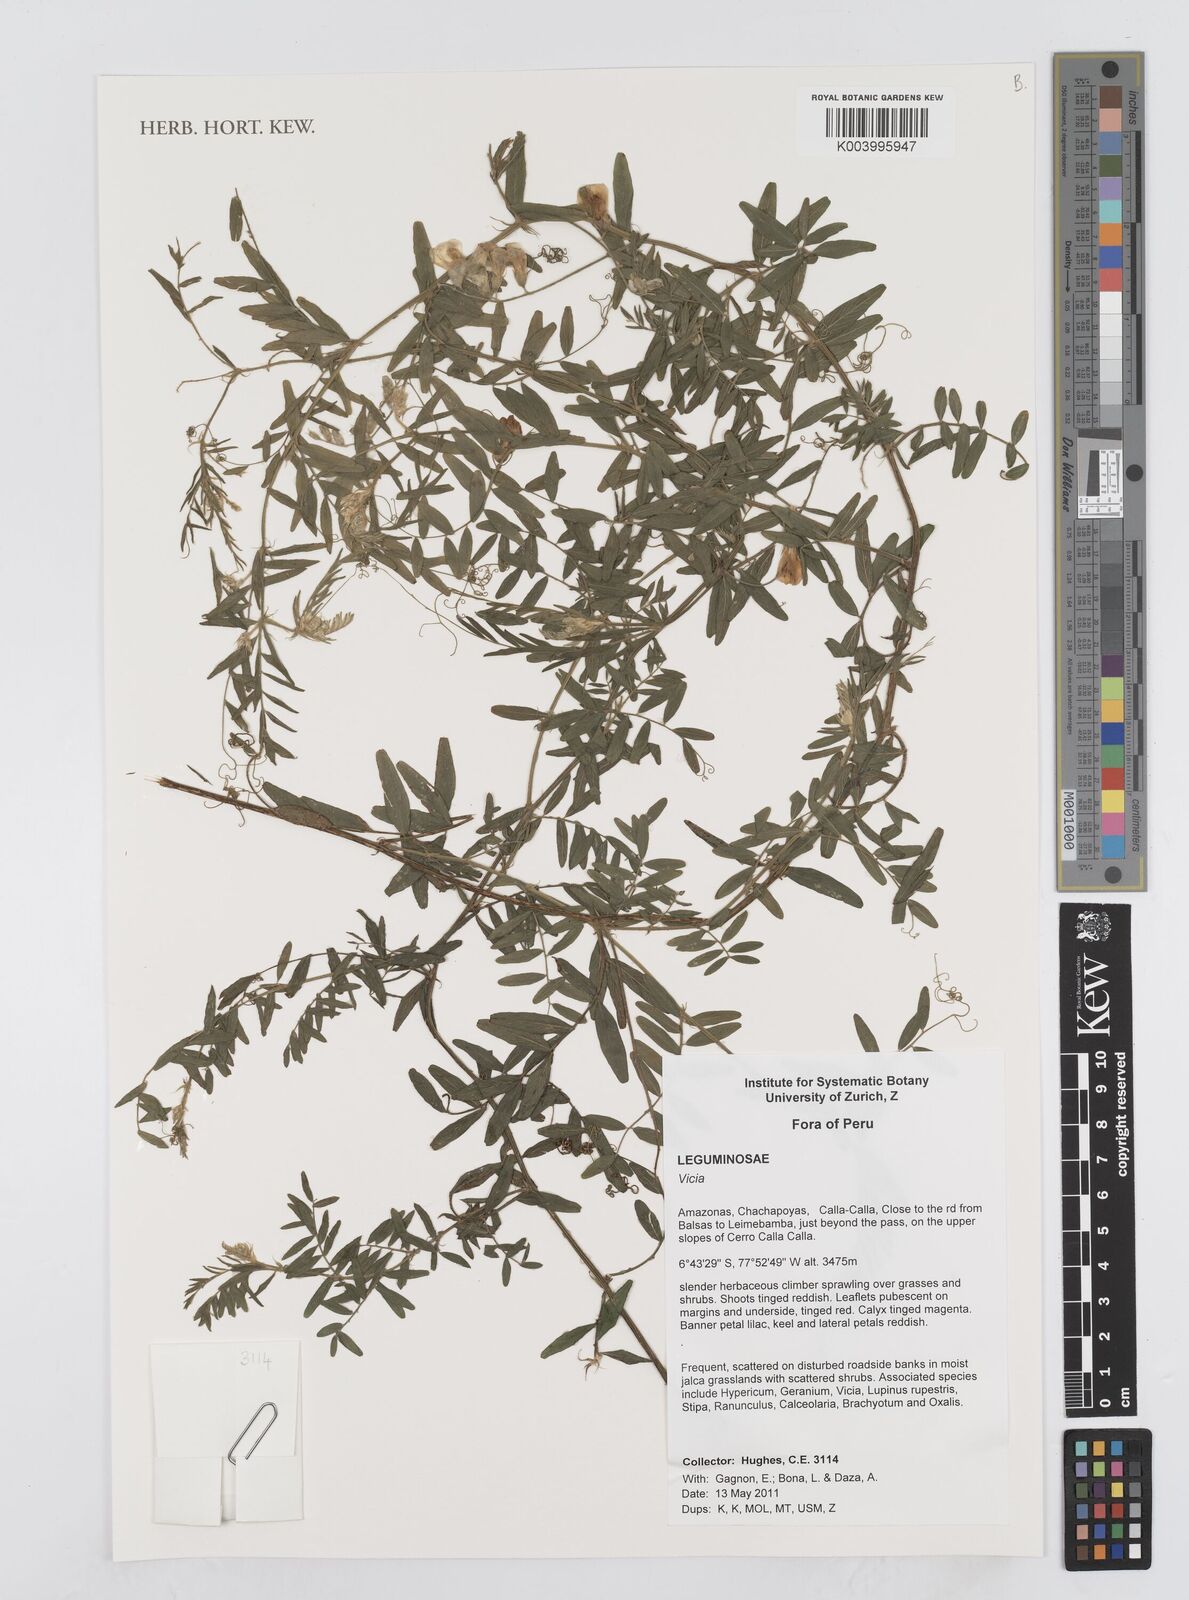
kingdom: Plantae
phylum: Tracheophyta
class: Magnoliopsida
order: Fabales
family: Fabaceae
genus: Vicia
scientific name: Vicia
